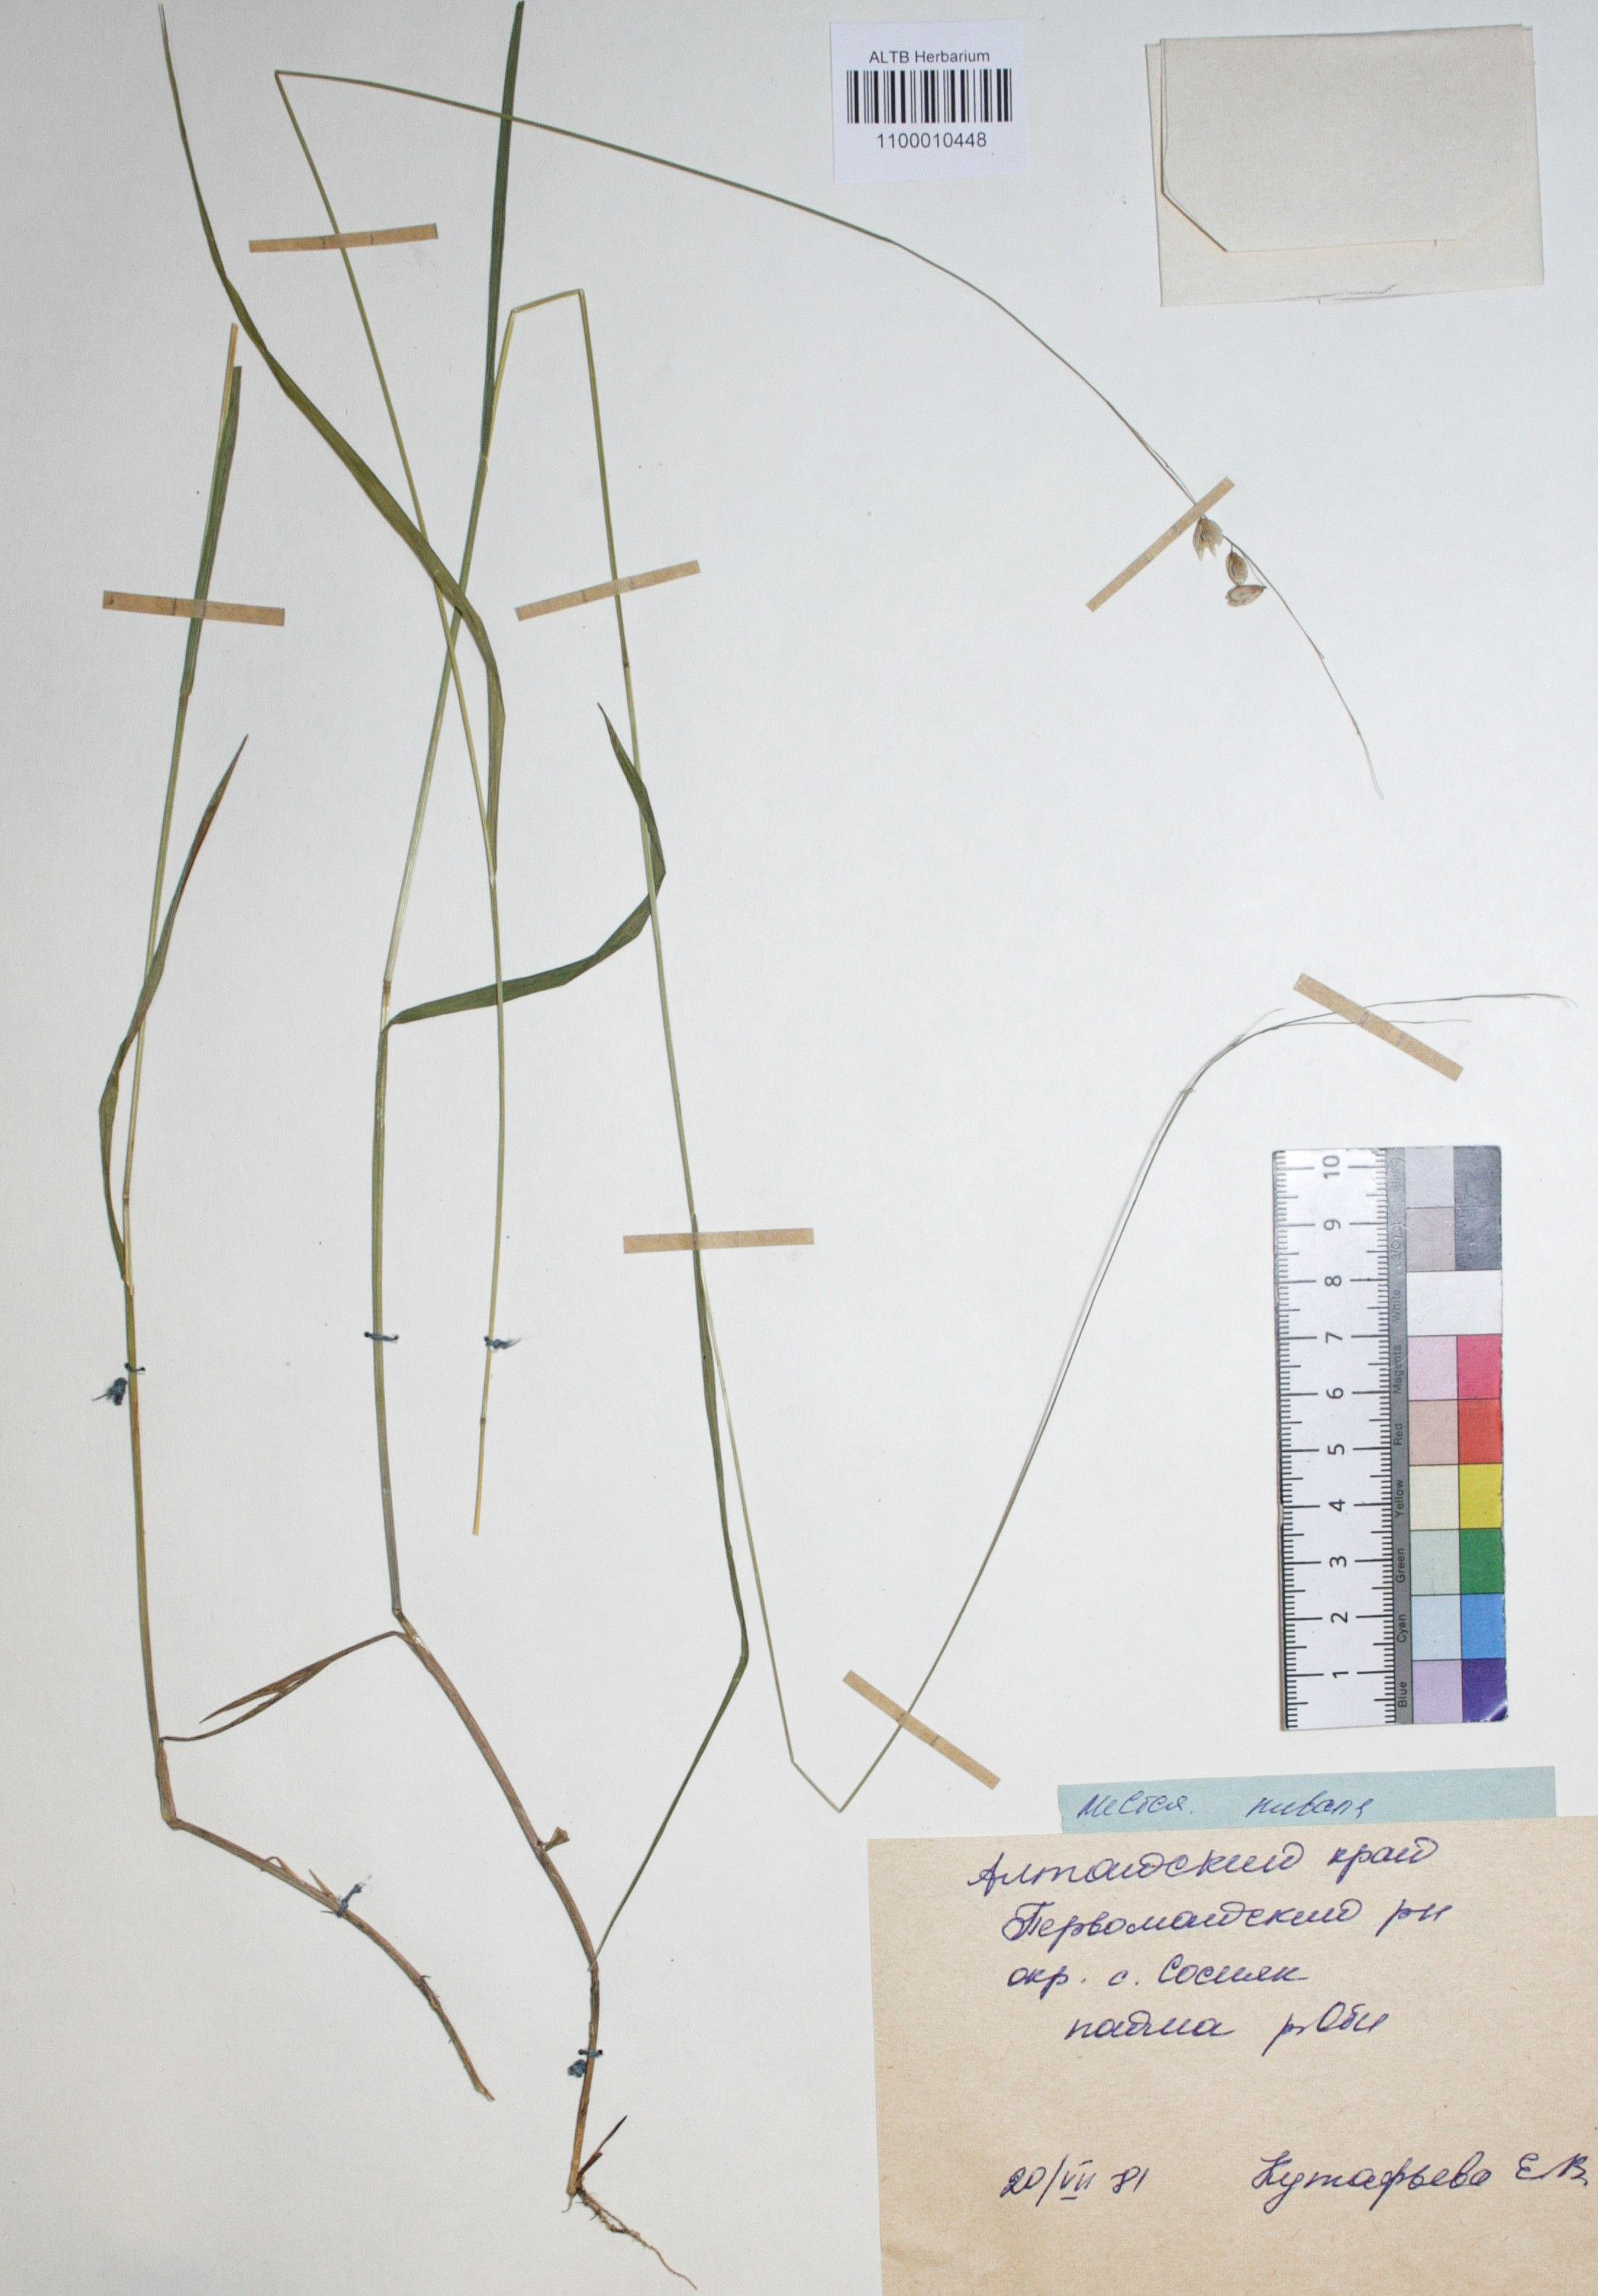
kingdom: Plantae
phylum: Tracheophyta
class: Liliopsida
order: Poales
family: Poaceae
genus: Melica
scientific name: Melica nutans
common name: Mountain melick
